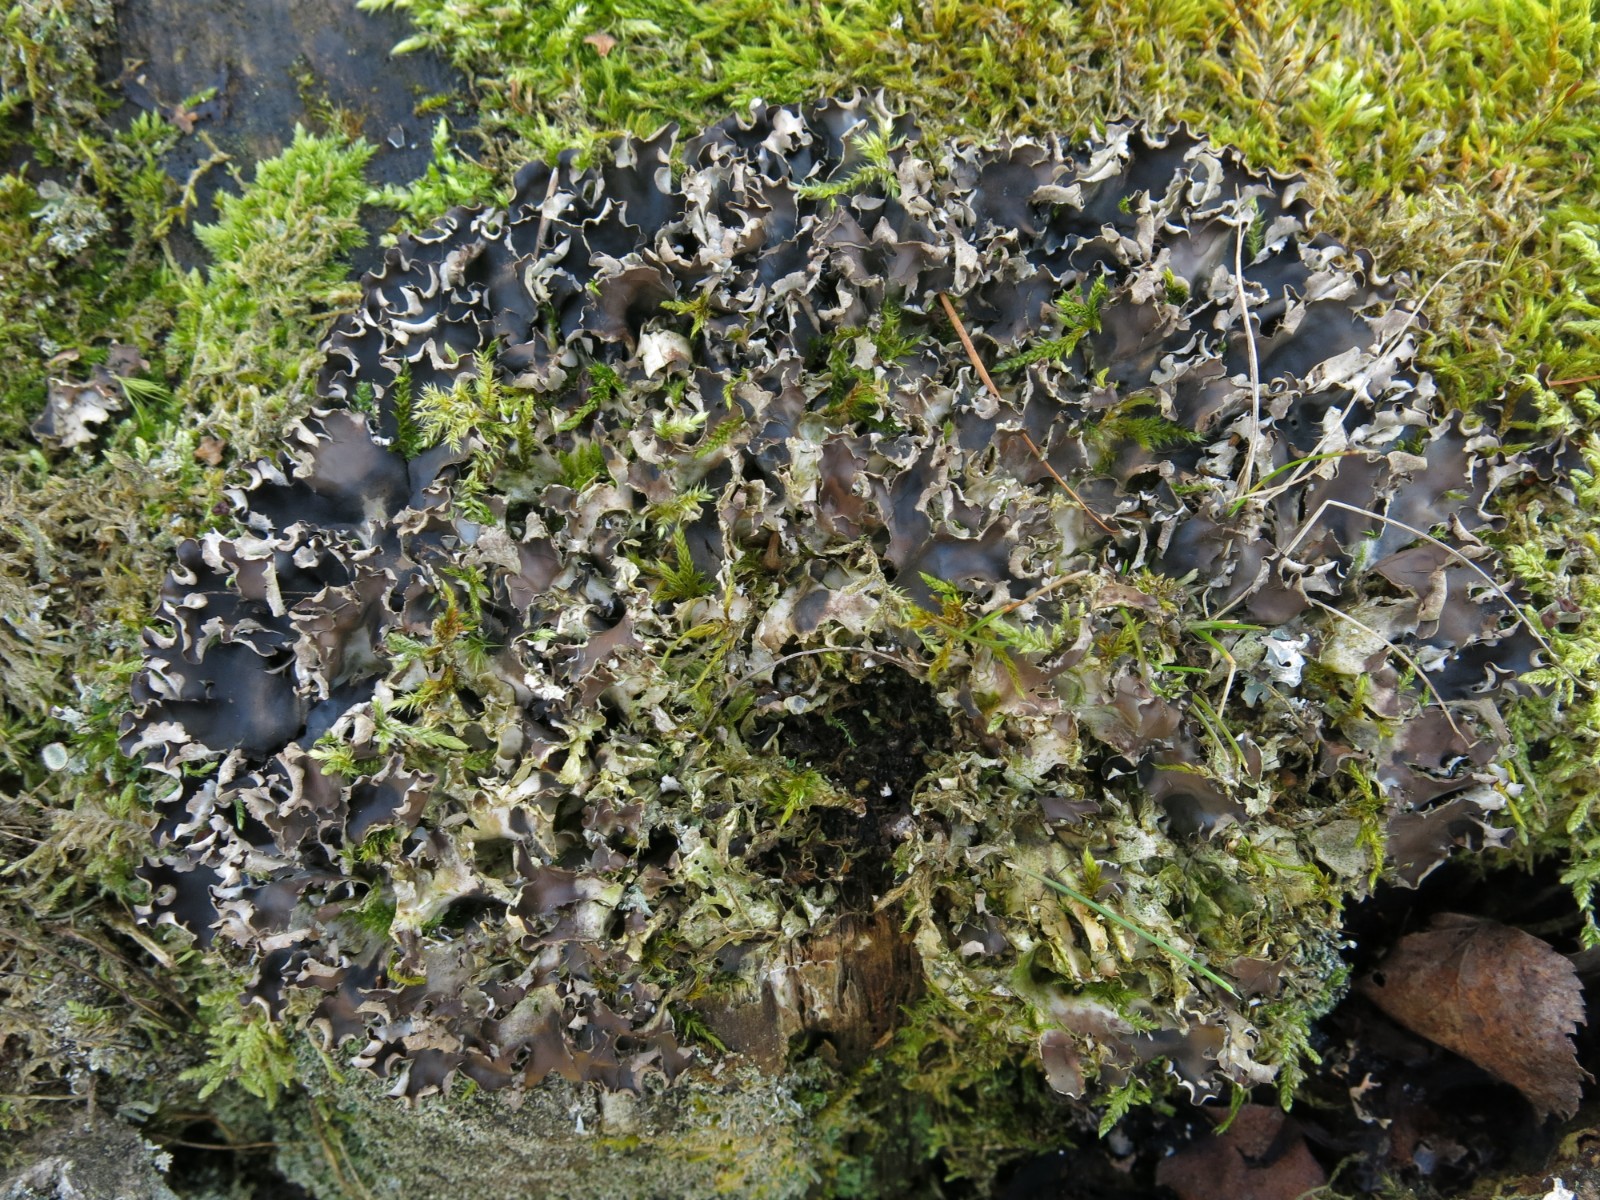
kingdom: Fungi
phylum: Ascomycota
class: Lecanoromycetes
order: Peltigerales
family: Peltigeraceae
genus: Peltigera
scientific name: Peltigera hymenina
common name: hinde-skjoldlav
